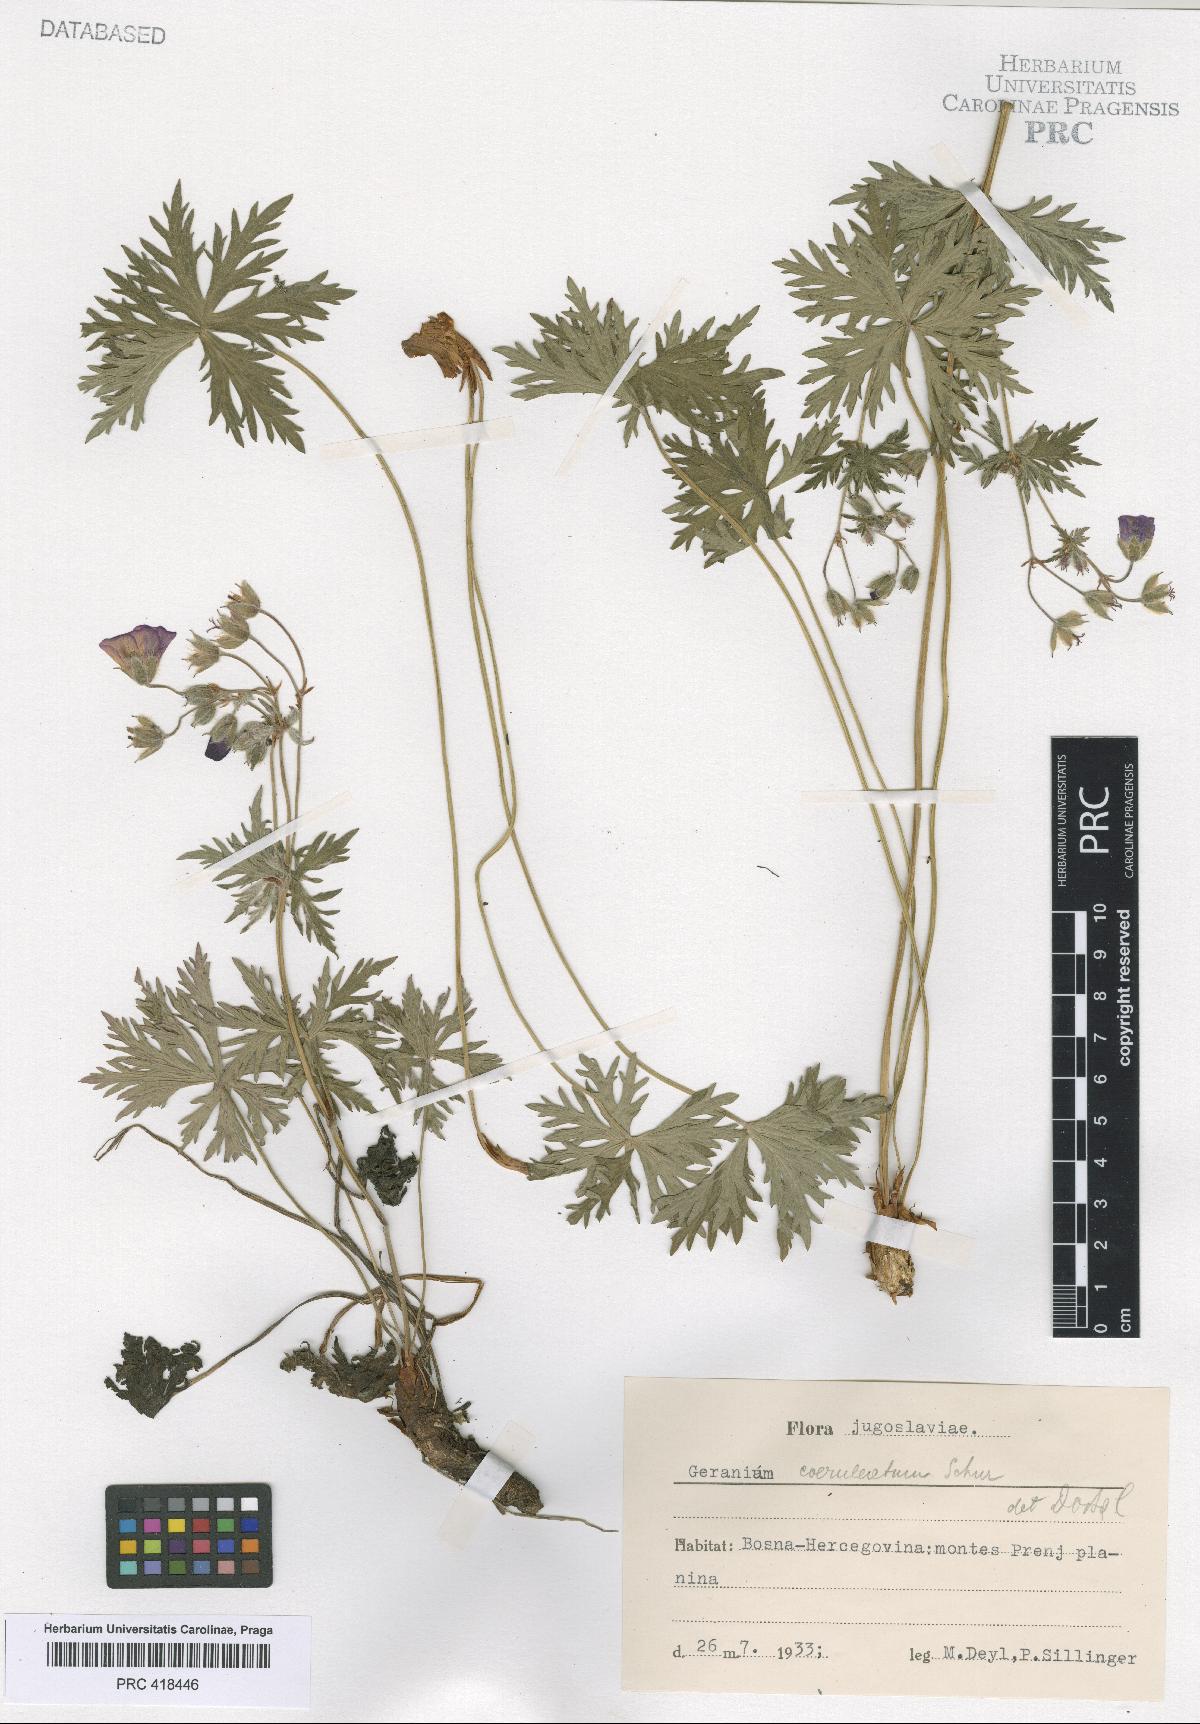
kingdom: Plantae
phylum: Tracheophyta
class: Magnoliopsida
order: Geraniales
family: Geraniaceae
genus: Geranium
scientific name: Geranium caeruleatum
